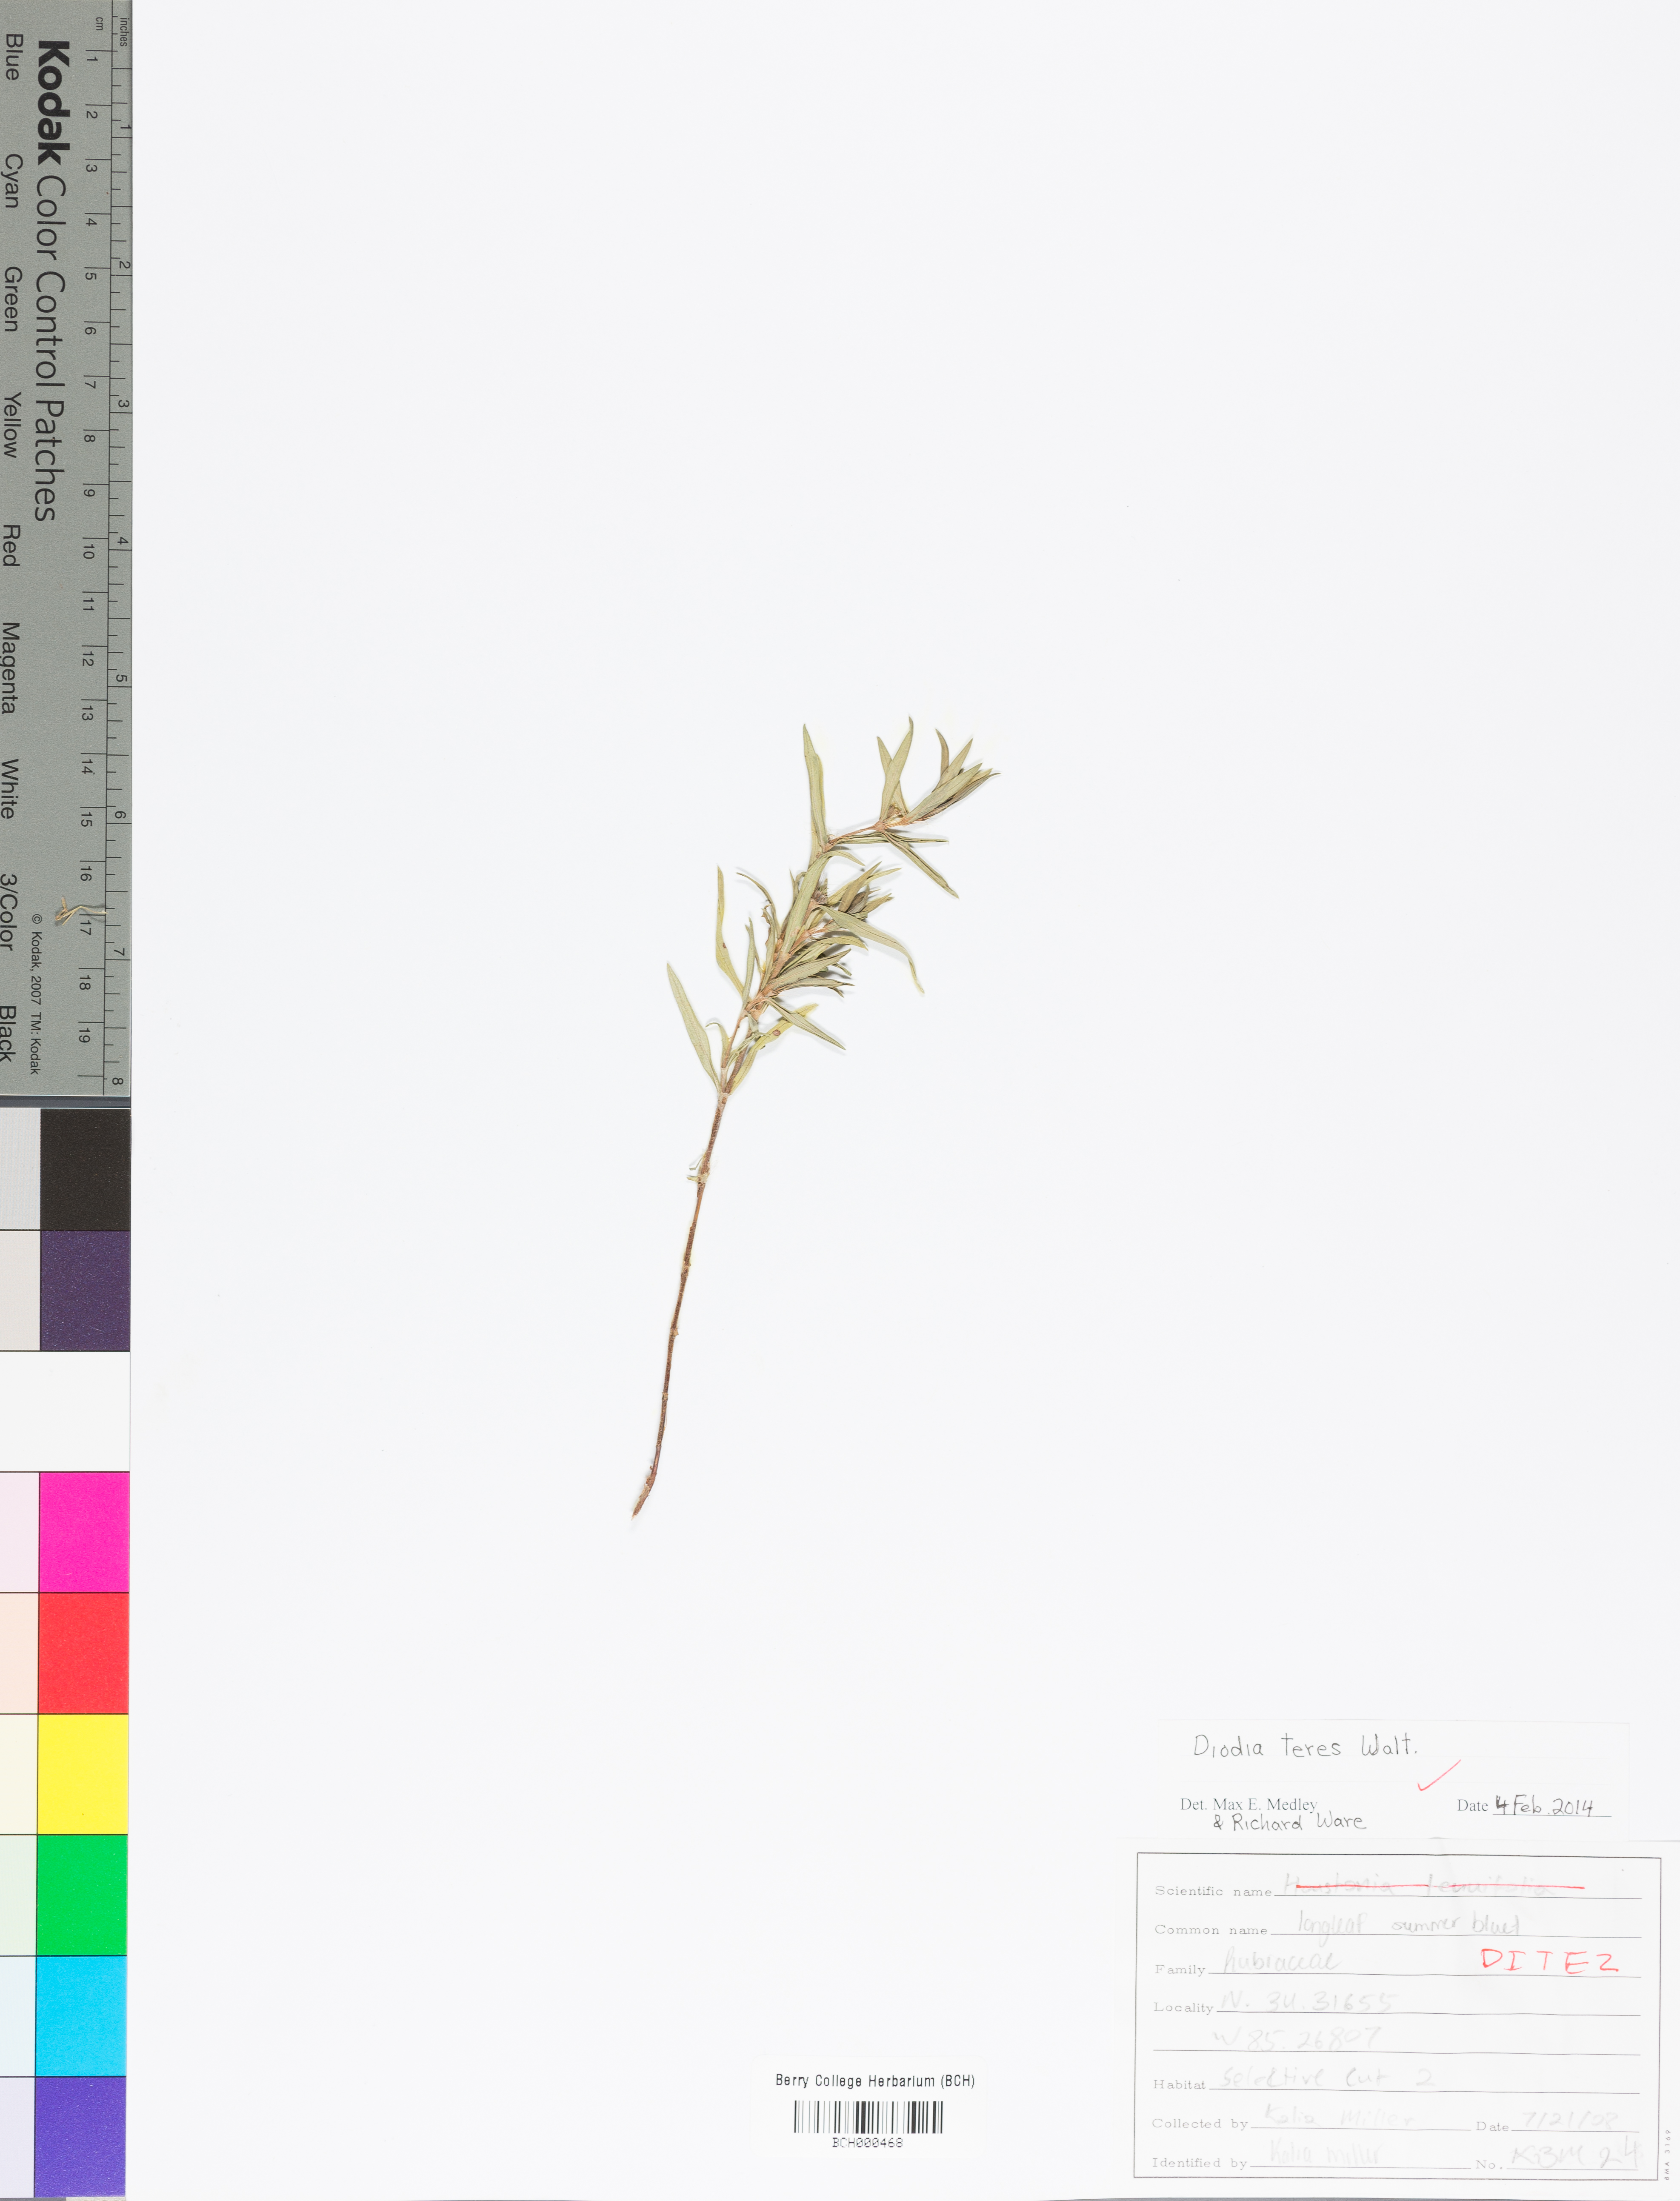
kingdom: Plantae
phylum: Tracheophyta
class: Magnoliopsida
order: Gentianales
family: Rubiaceae
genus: Hexasepalum
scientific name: Hexasepalum teres
